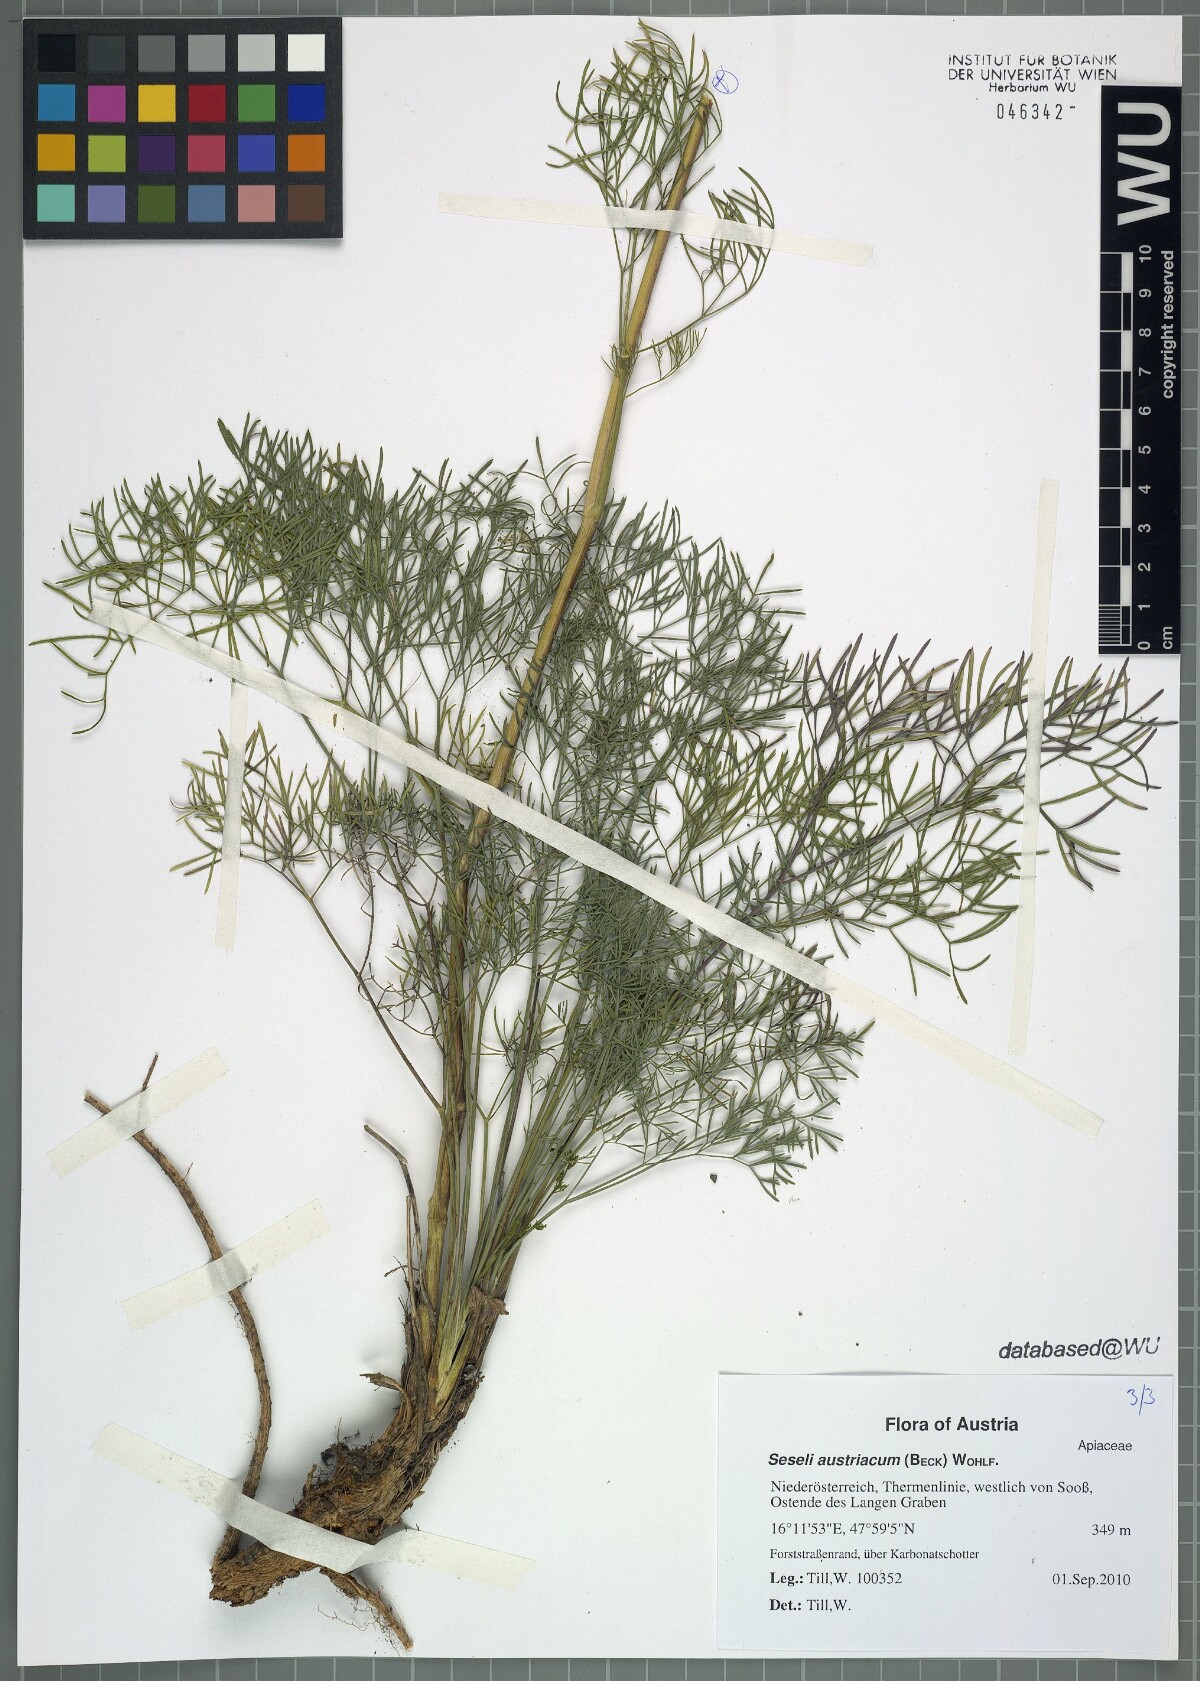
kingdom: Plantae
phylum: Tracheophyta
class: Magnoliopsida
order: Apiales
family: Apiaceae
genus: Seseli
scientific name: Seseli austriacum
